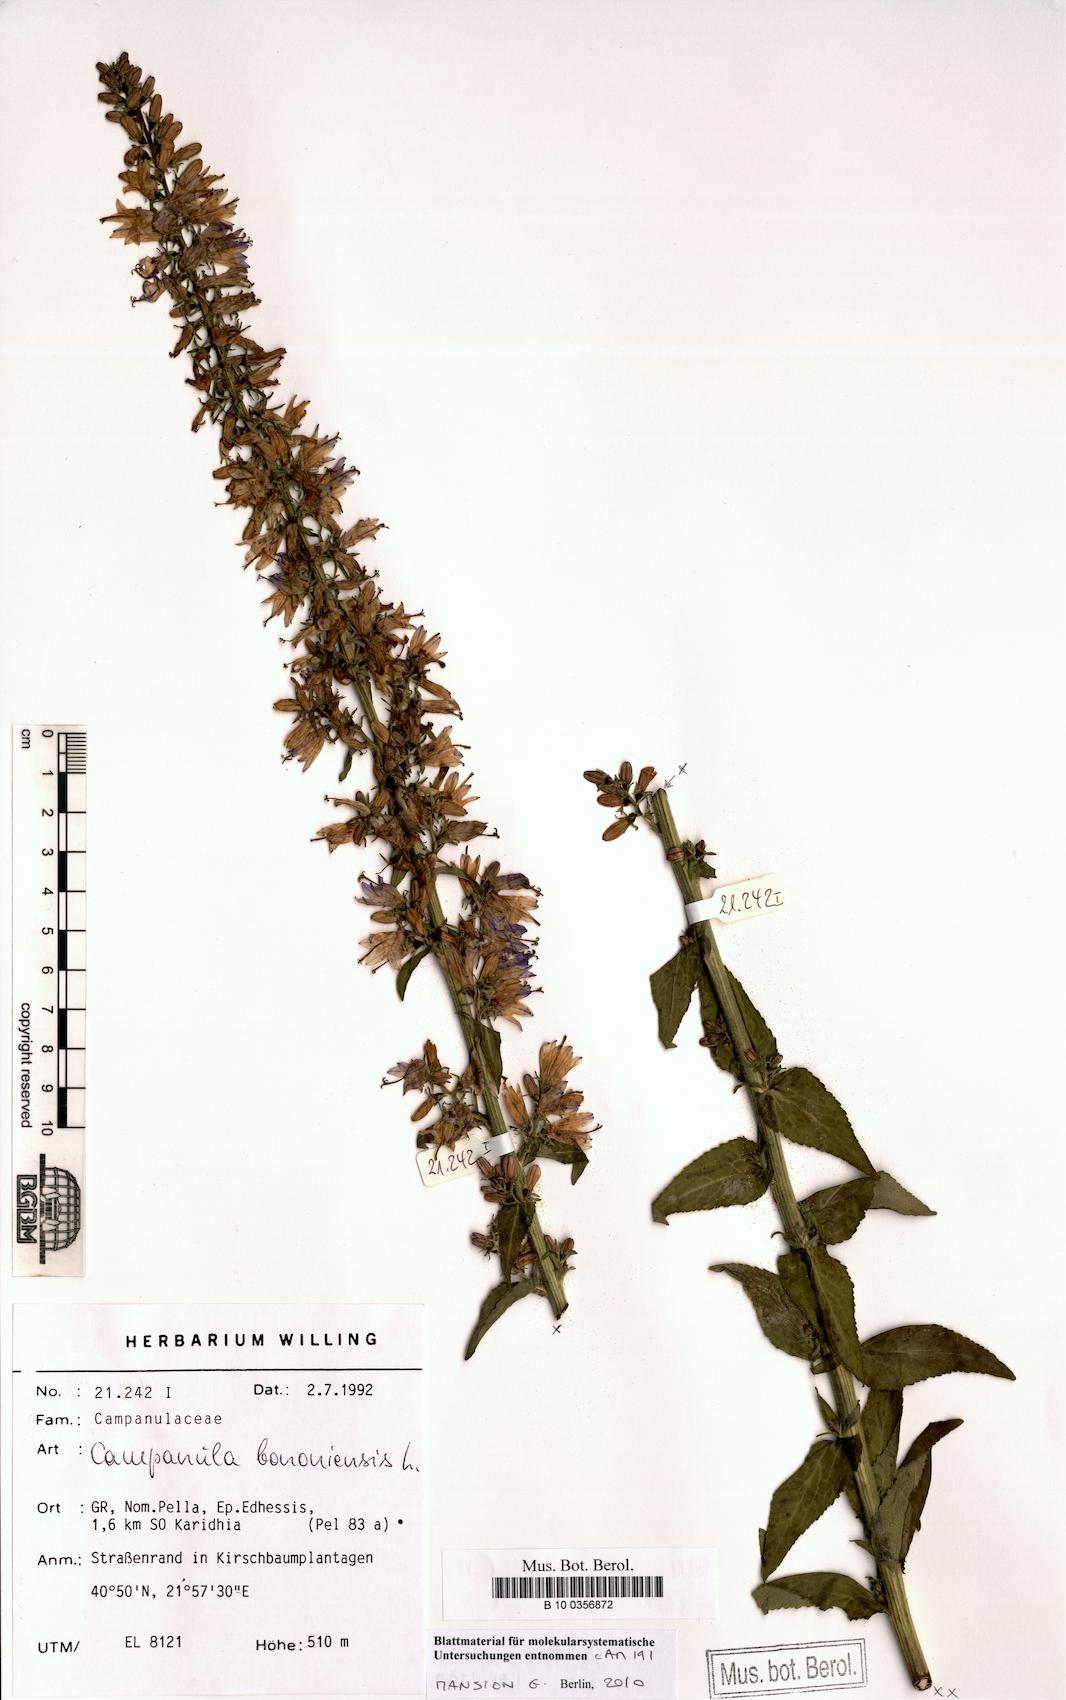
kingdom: Plantae
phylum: Tracheophyta
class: Magnoliopsida
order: Asterales
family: Campanulaceae
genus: Campanula
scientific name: Campanula bononiensis
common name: Pale bellflower
